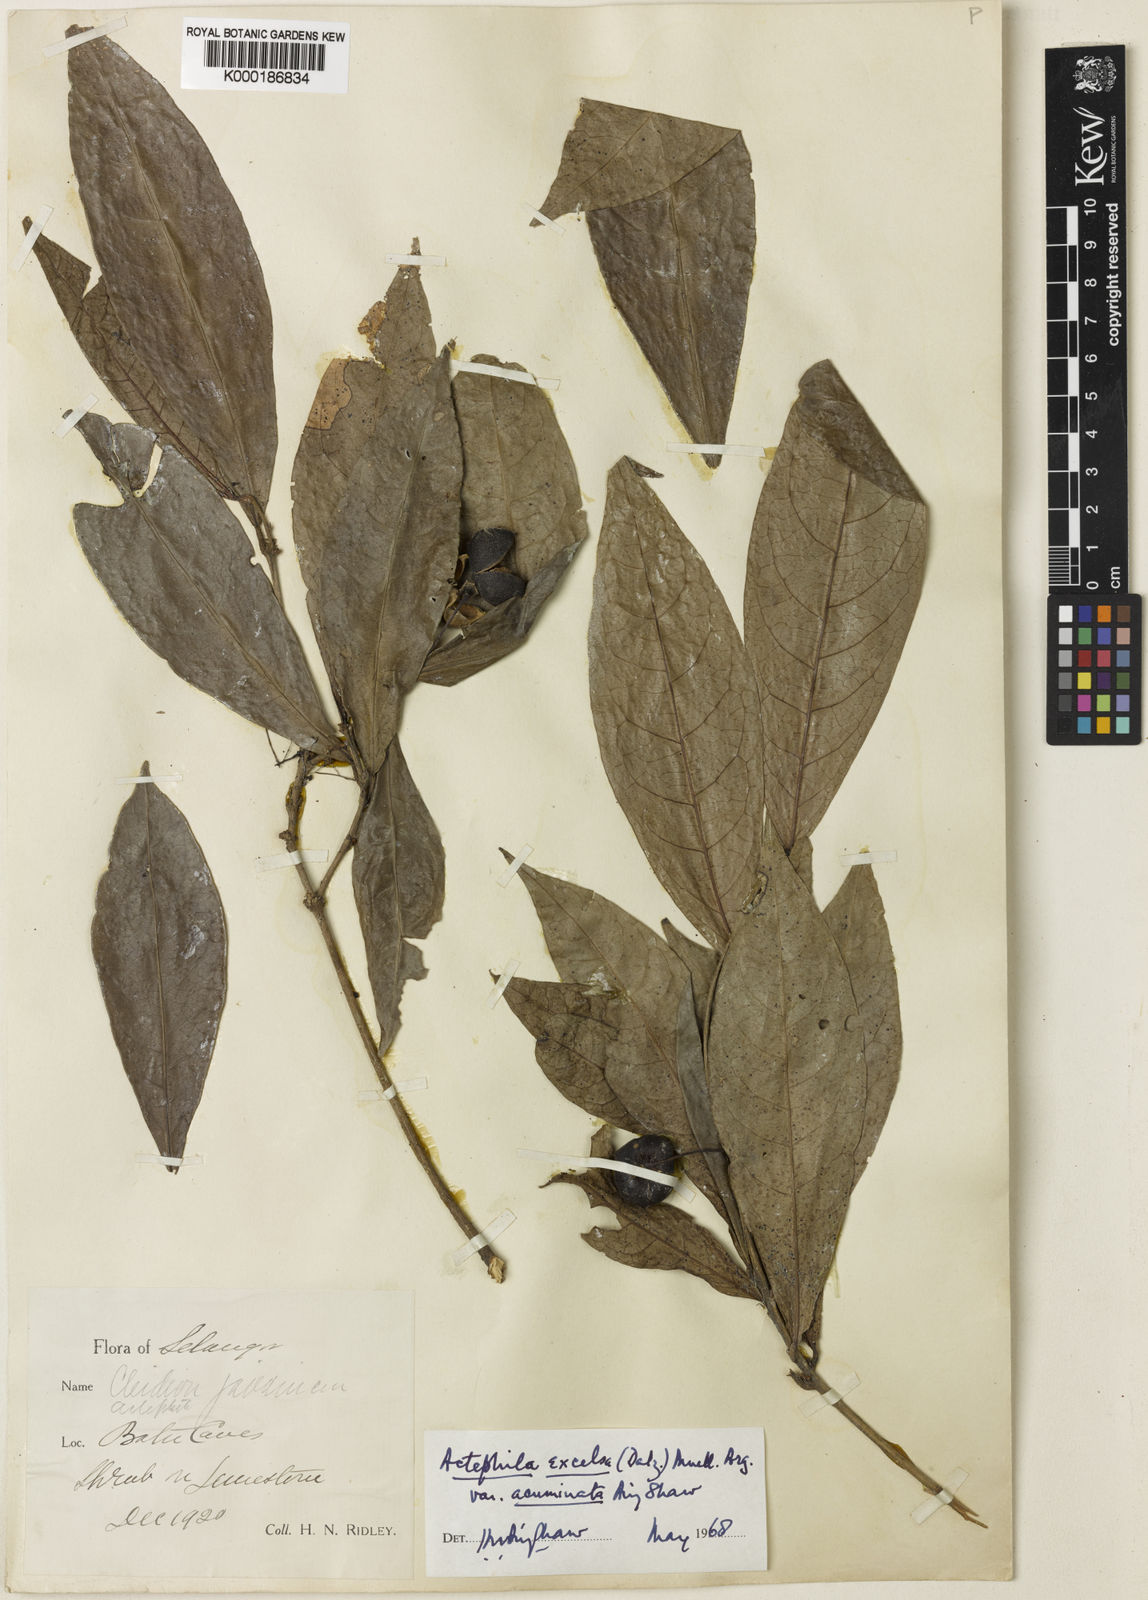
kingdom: Plantae
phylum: Tracheophyta
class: Magnoliopsida
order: Malpighiales
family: Phyllanthaceae
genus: Actephila
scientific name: Actephila subsessilis
